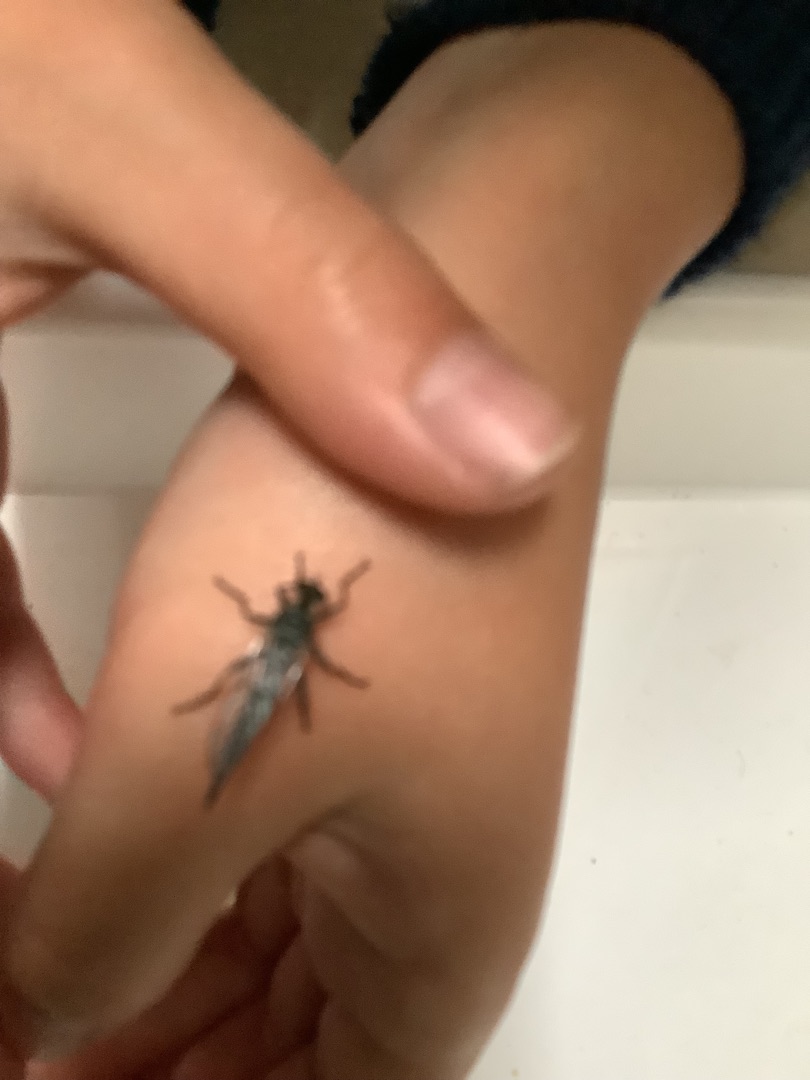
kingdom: Animalia
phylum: Arthropoda
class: Insecta
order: Diptera
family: Asilidae
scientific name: Asilidae
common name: Rovfluer
